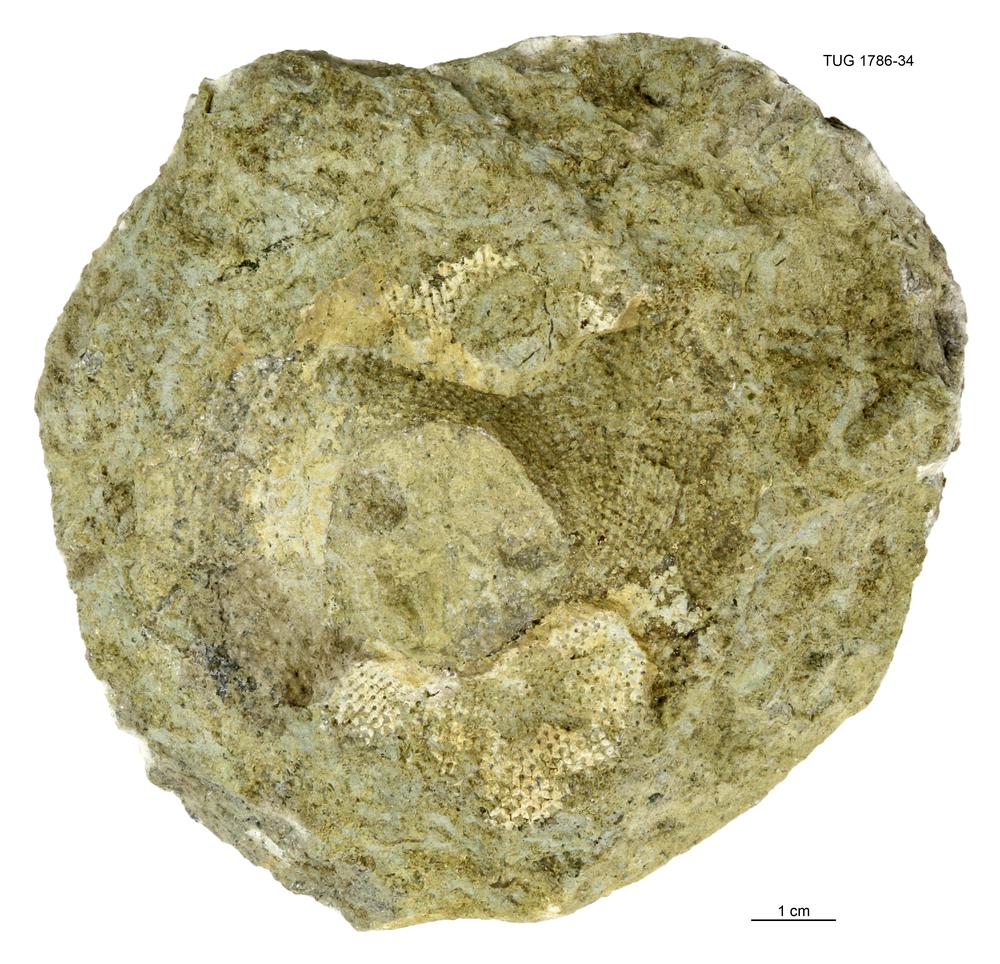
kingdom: Plantae
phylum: Chlorophyta
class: Chlorophyceae
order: Receptaculitales
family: Receptaculitaceae
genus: Receptaculites
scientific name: Receptaculites
